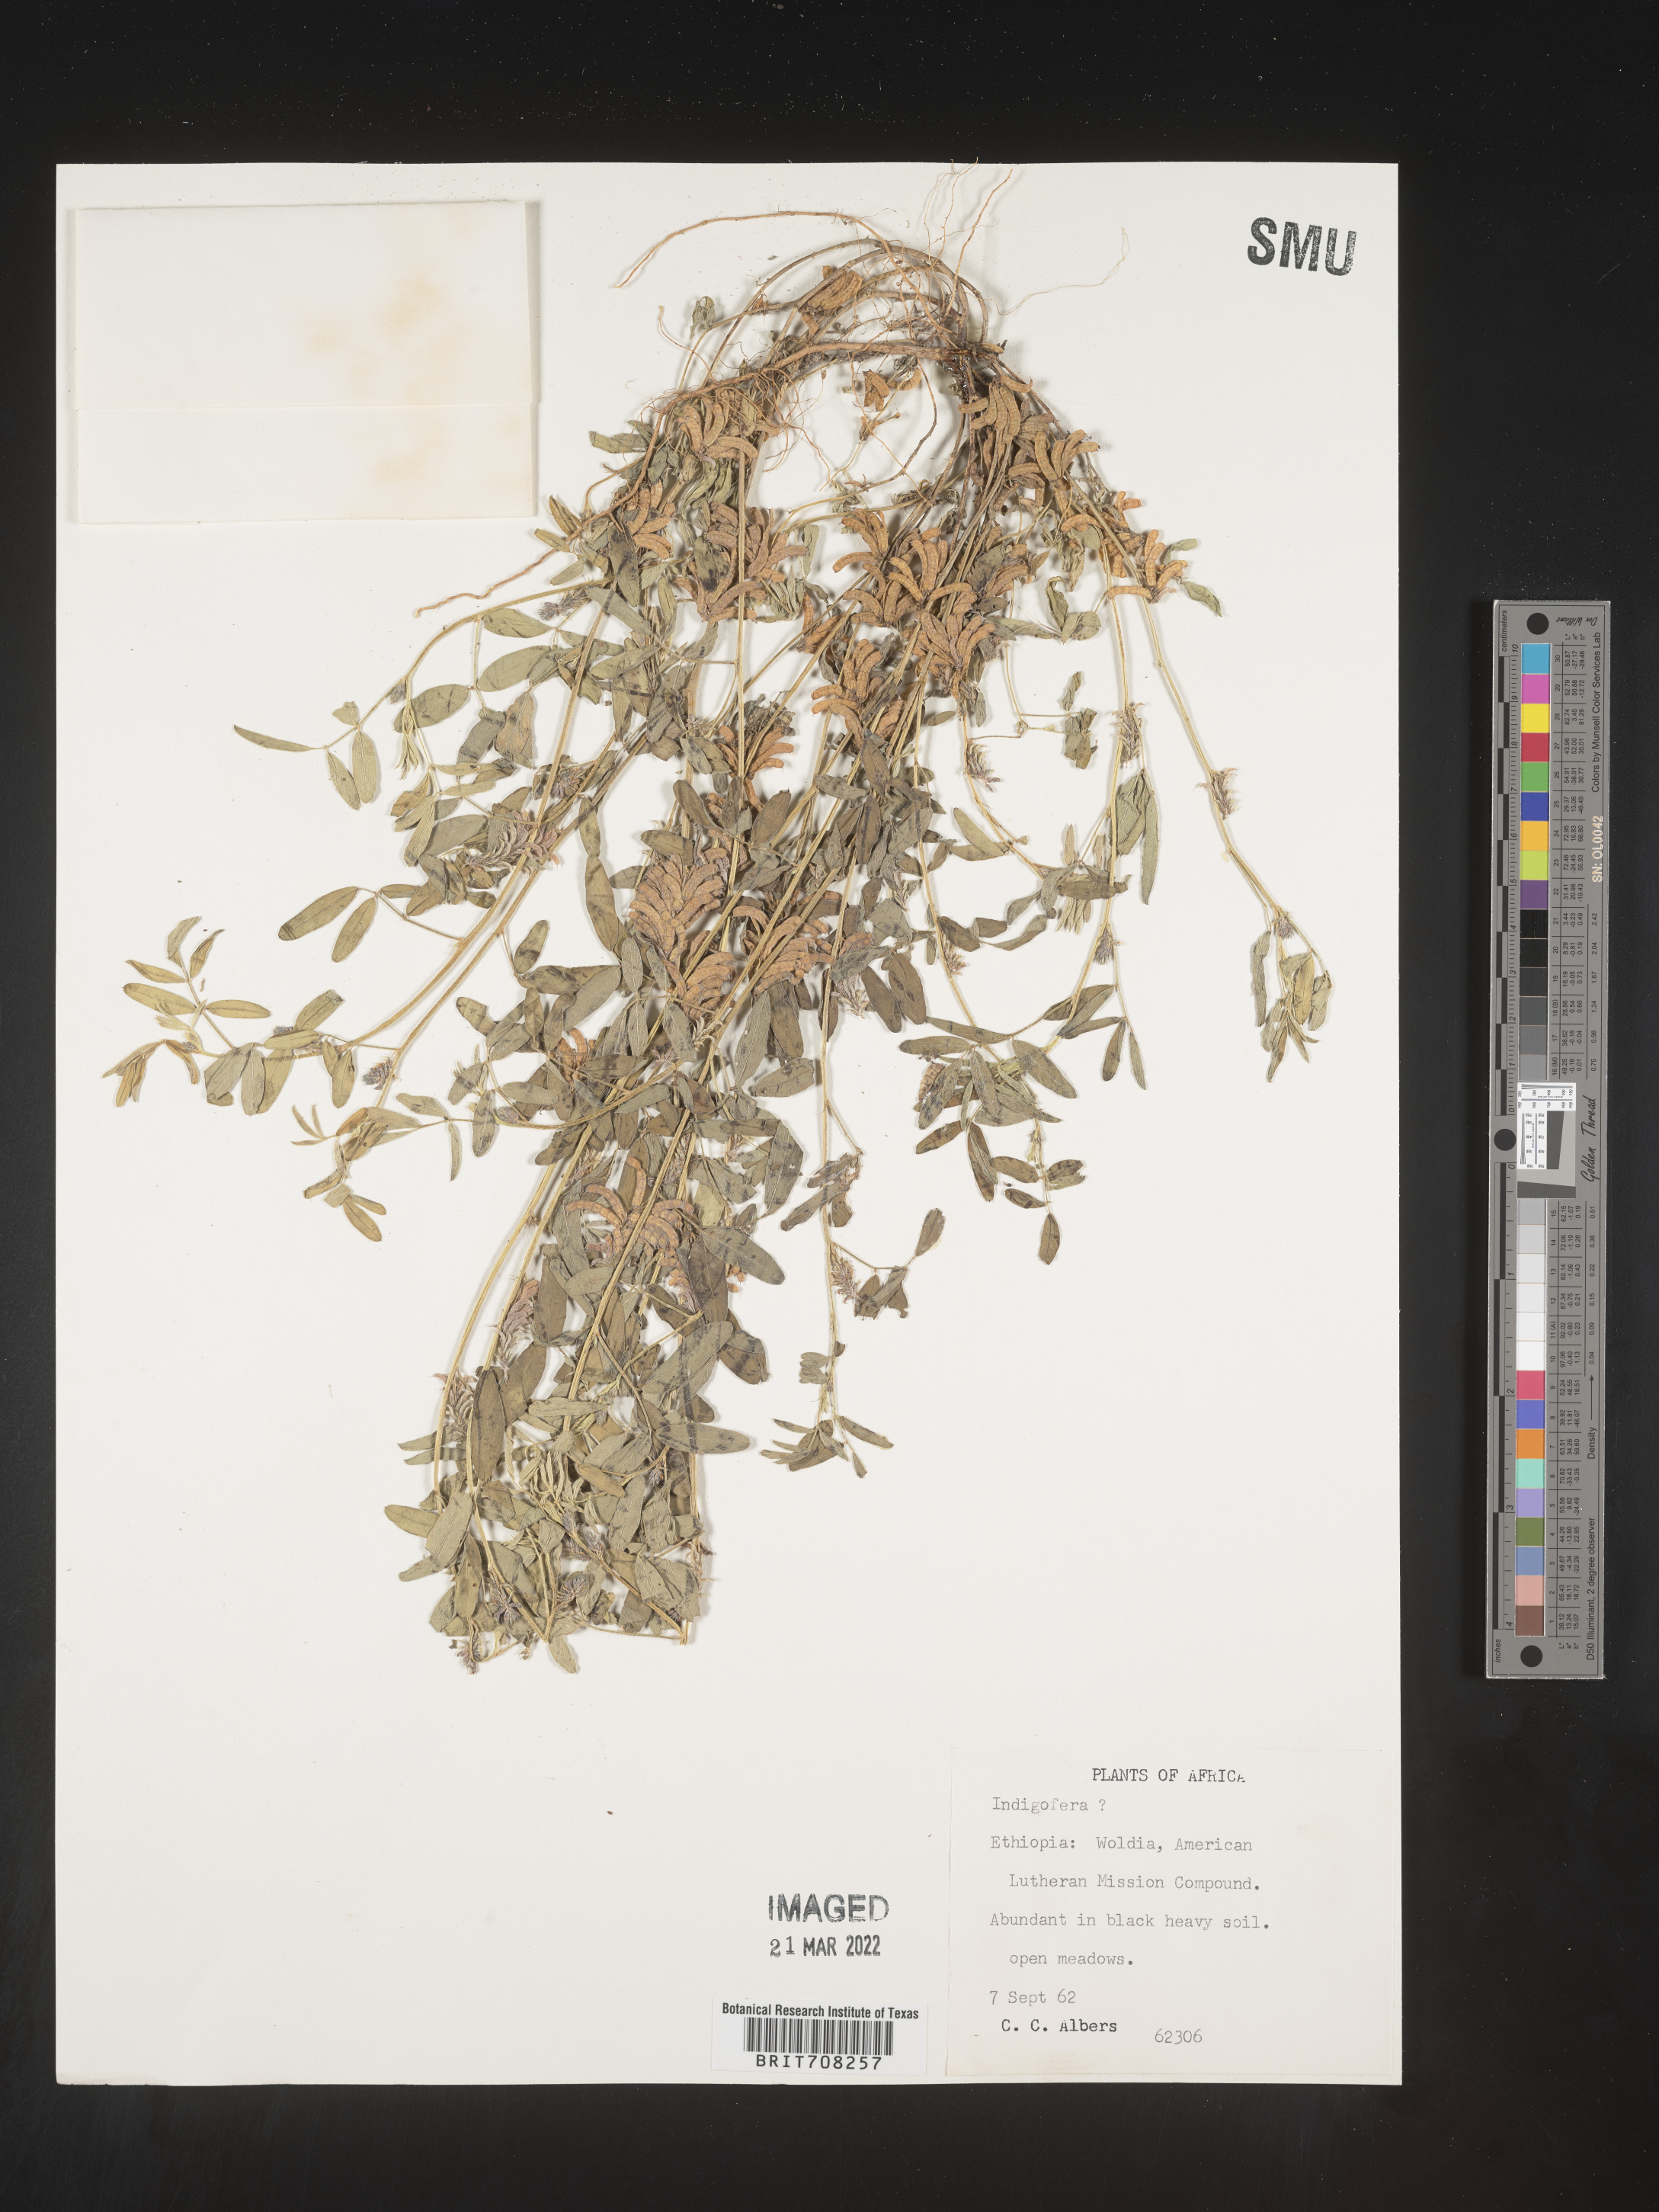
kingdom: Plantae
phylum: Tracheophyta
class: Magnoliopsida
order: Fabales
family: Fabaceae
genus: Indigofera
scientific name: Indigofera
